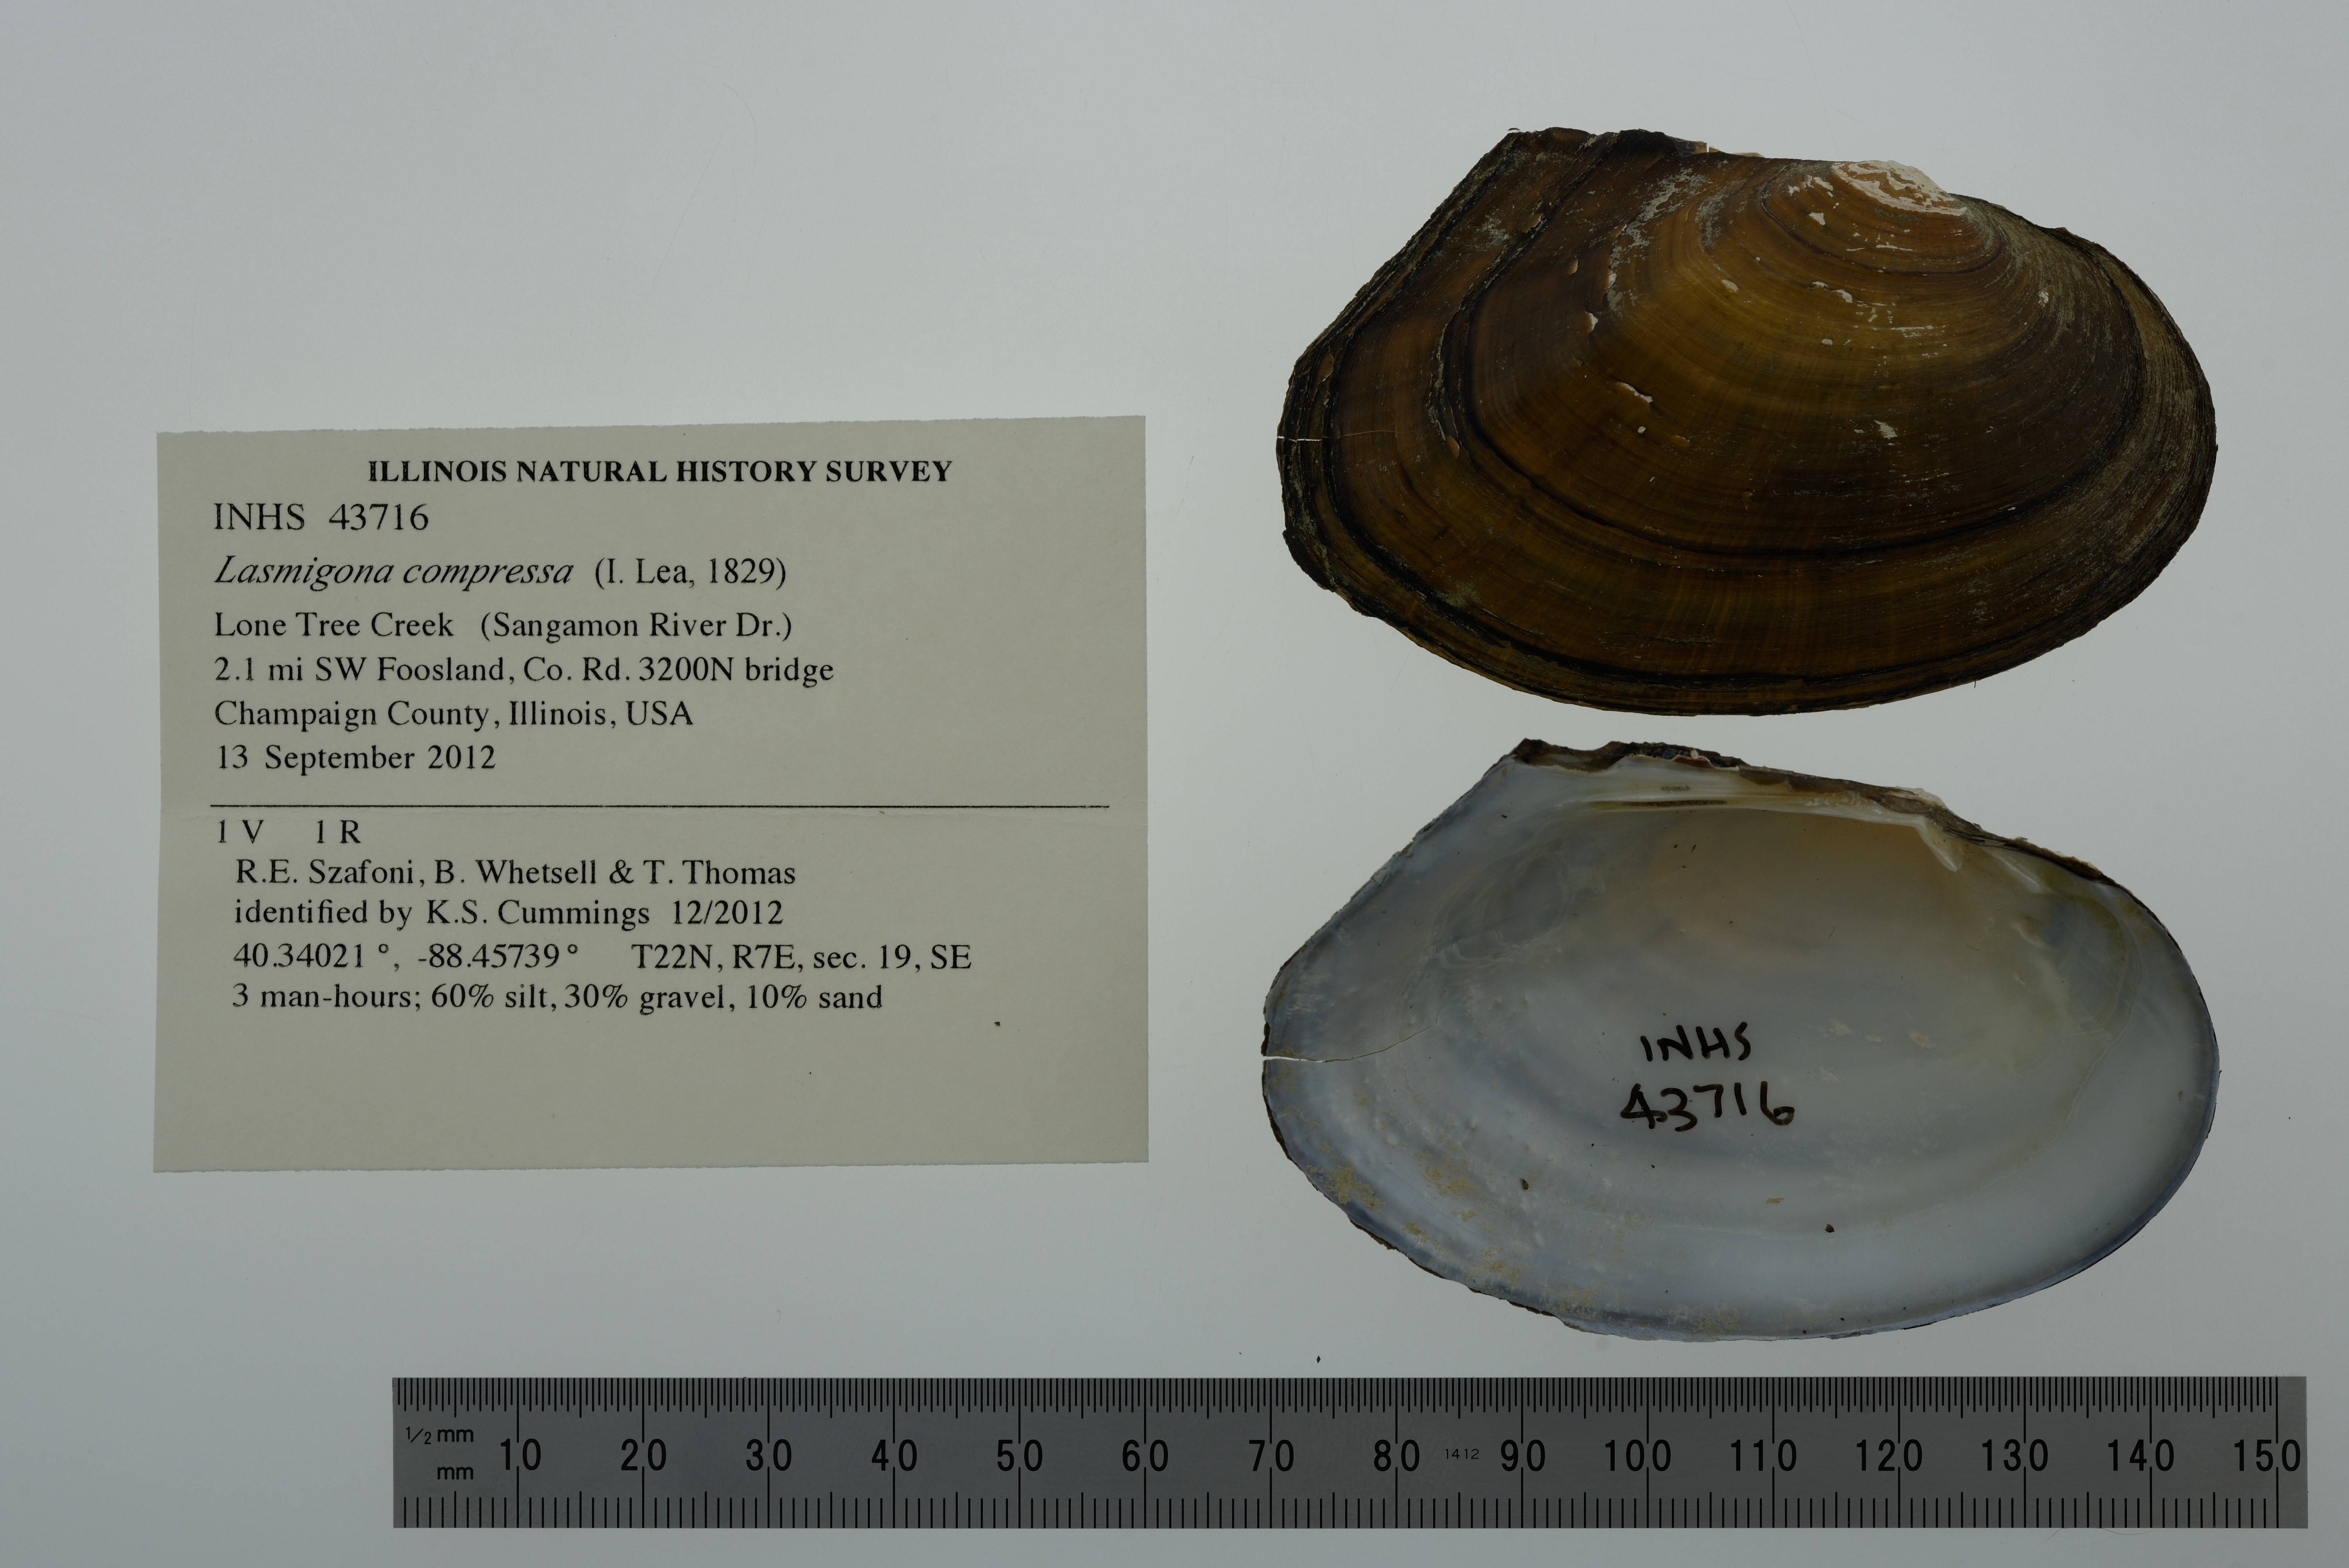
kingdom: Animalia
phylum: Mollusca
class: Bivalvia
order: Unionida
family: Unionidae
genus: Lasmigona
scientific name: Lasmigona compressa
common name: Creek heelsplitter
